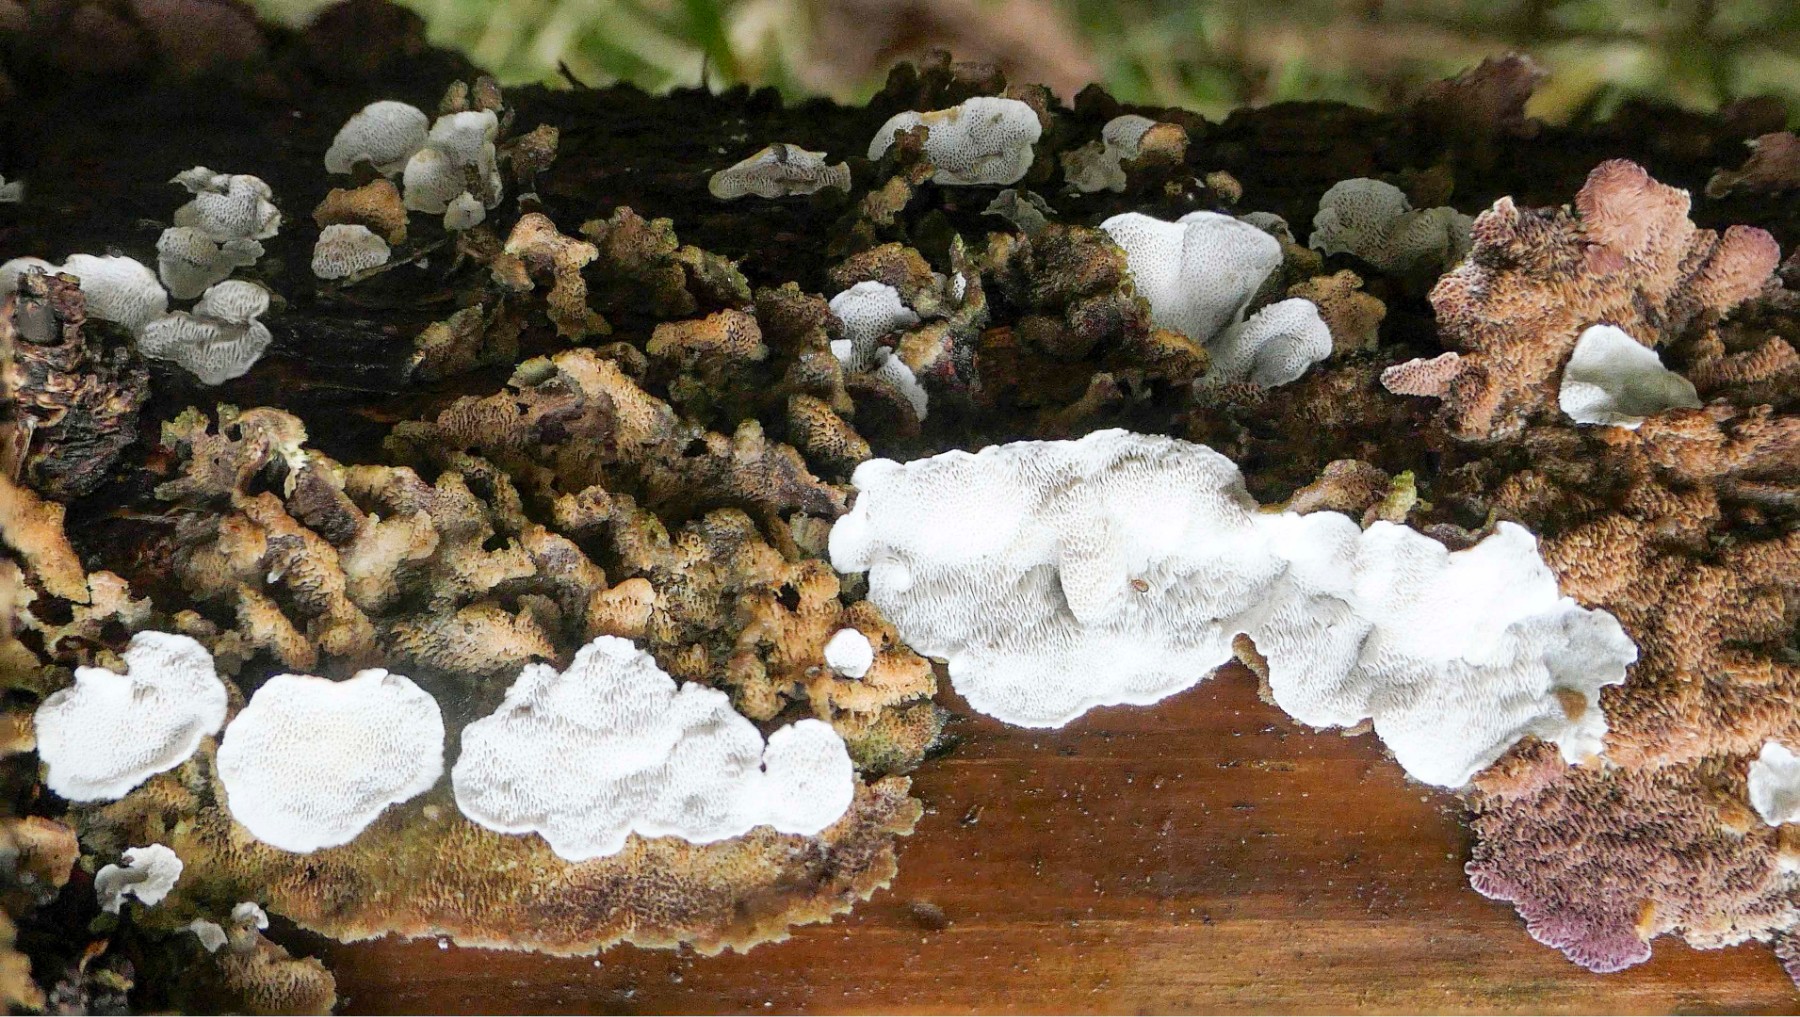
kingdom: Fungi
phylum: Basidiomycota
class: Agaricomycetes
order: Polyporales
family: Incrustoporiaceae
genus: Skeletocutis
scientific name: Skeletocutis carneogrisea
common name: rødgrå krystalporesvamp
